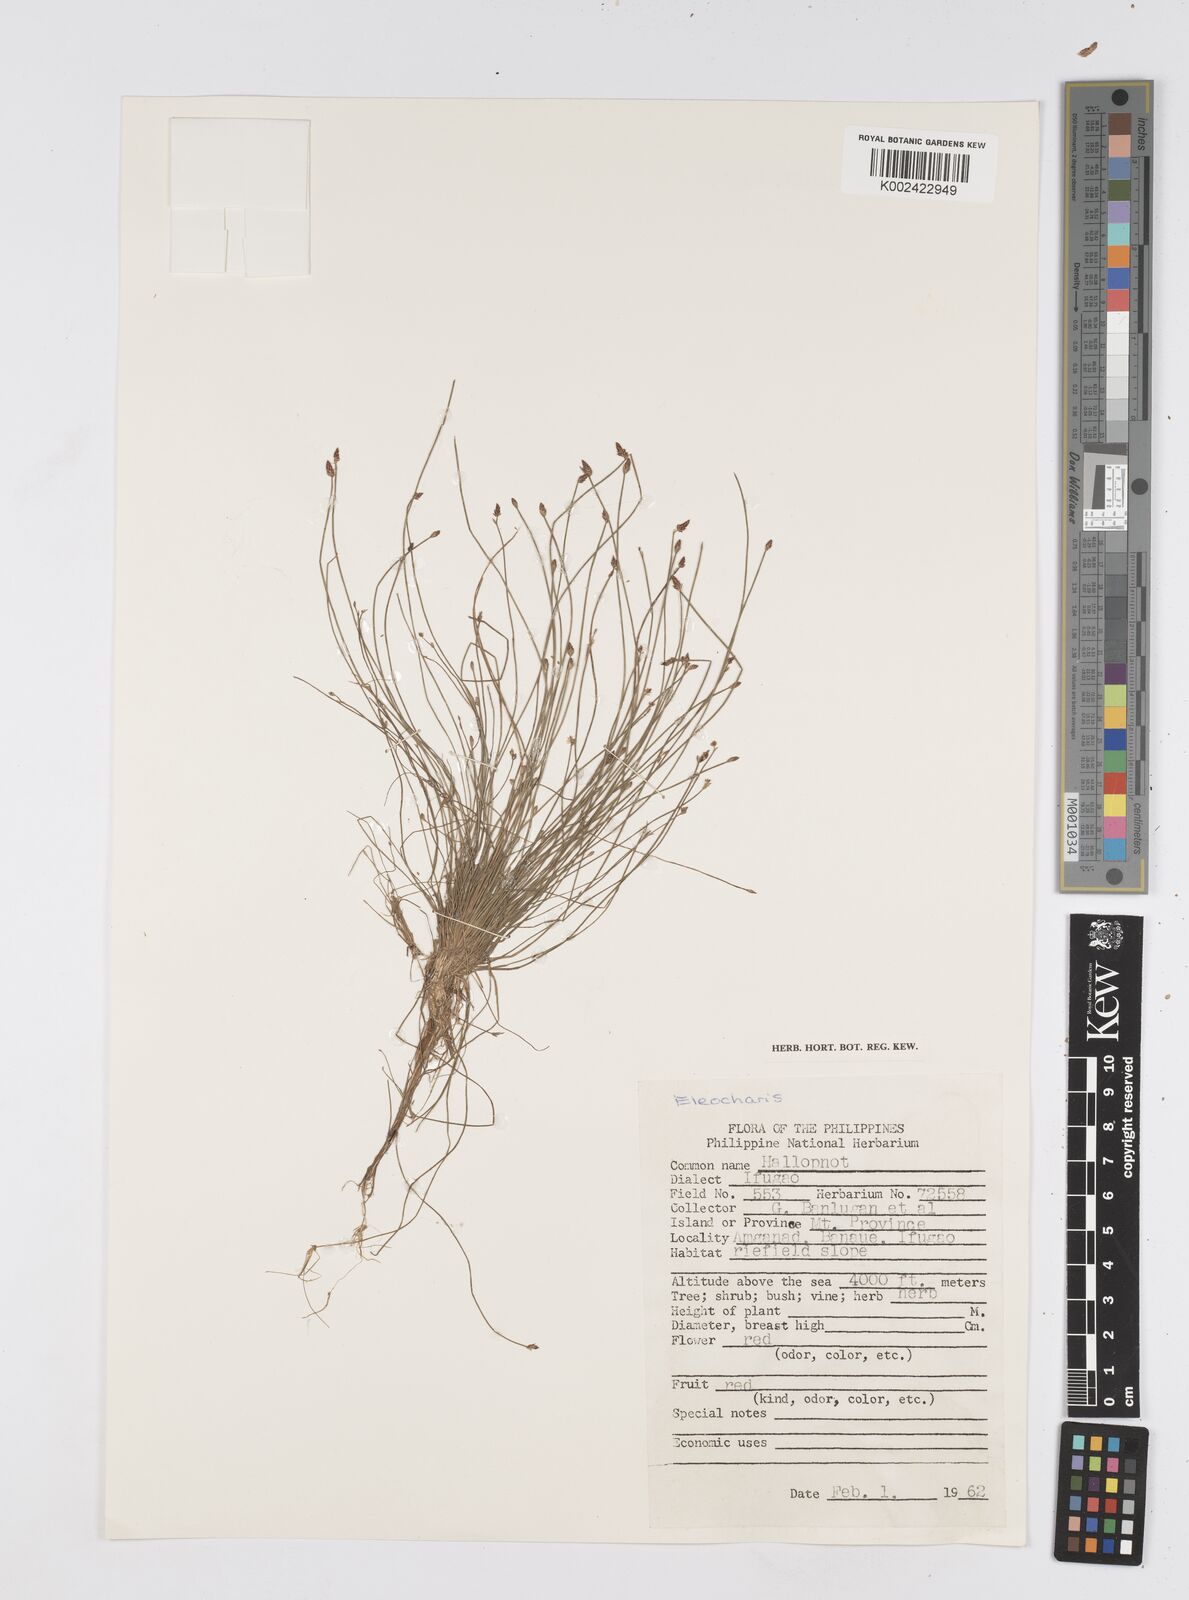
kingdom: Plantae
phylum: Tracheophyta
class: Liliopsida
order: Poales
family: Cyperaceae
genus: Eleocharis
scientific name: Eleocharis
